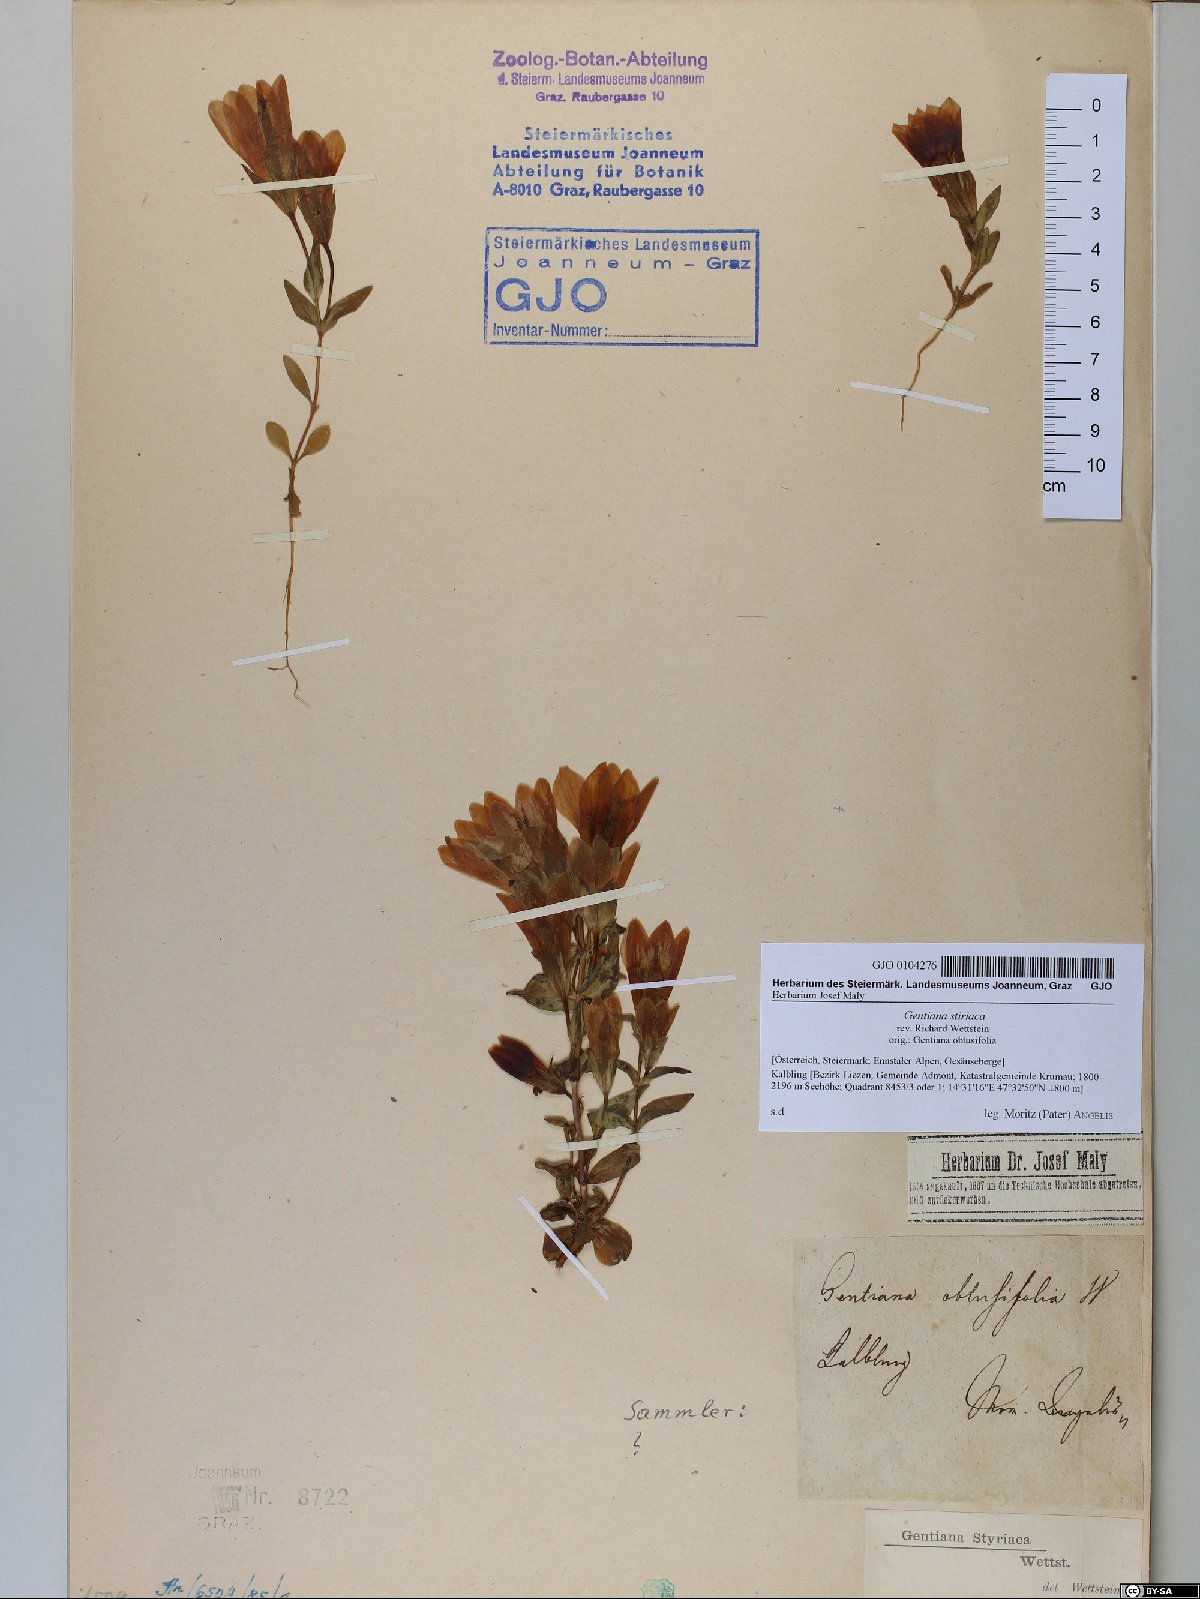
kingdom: Plantae
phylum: Tracheophyta
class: Magnoliopsida
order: Gentianales
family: Gentianaceae
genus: Gentianella
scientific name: Gentianella rhaetica
